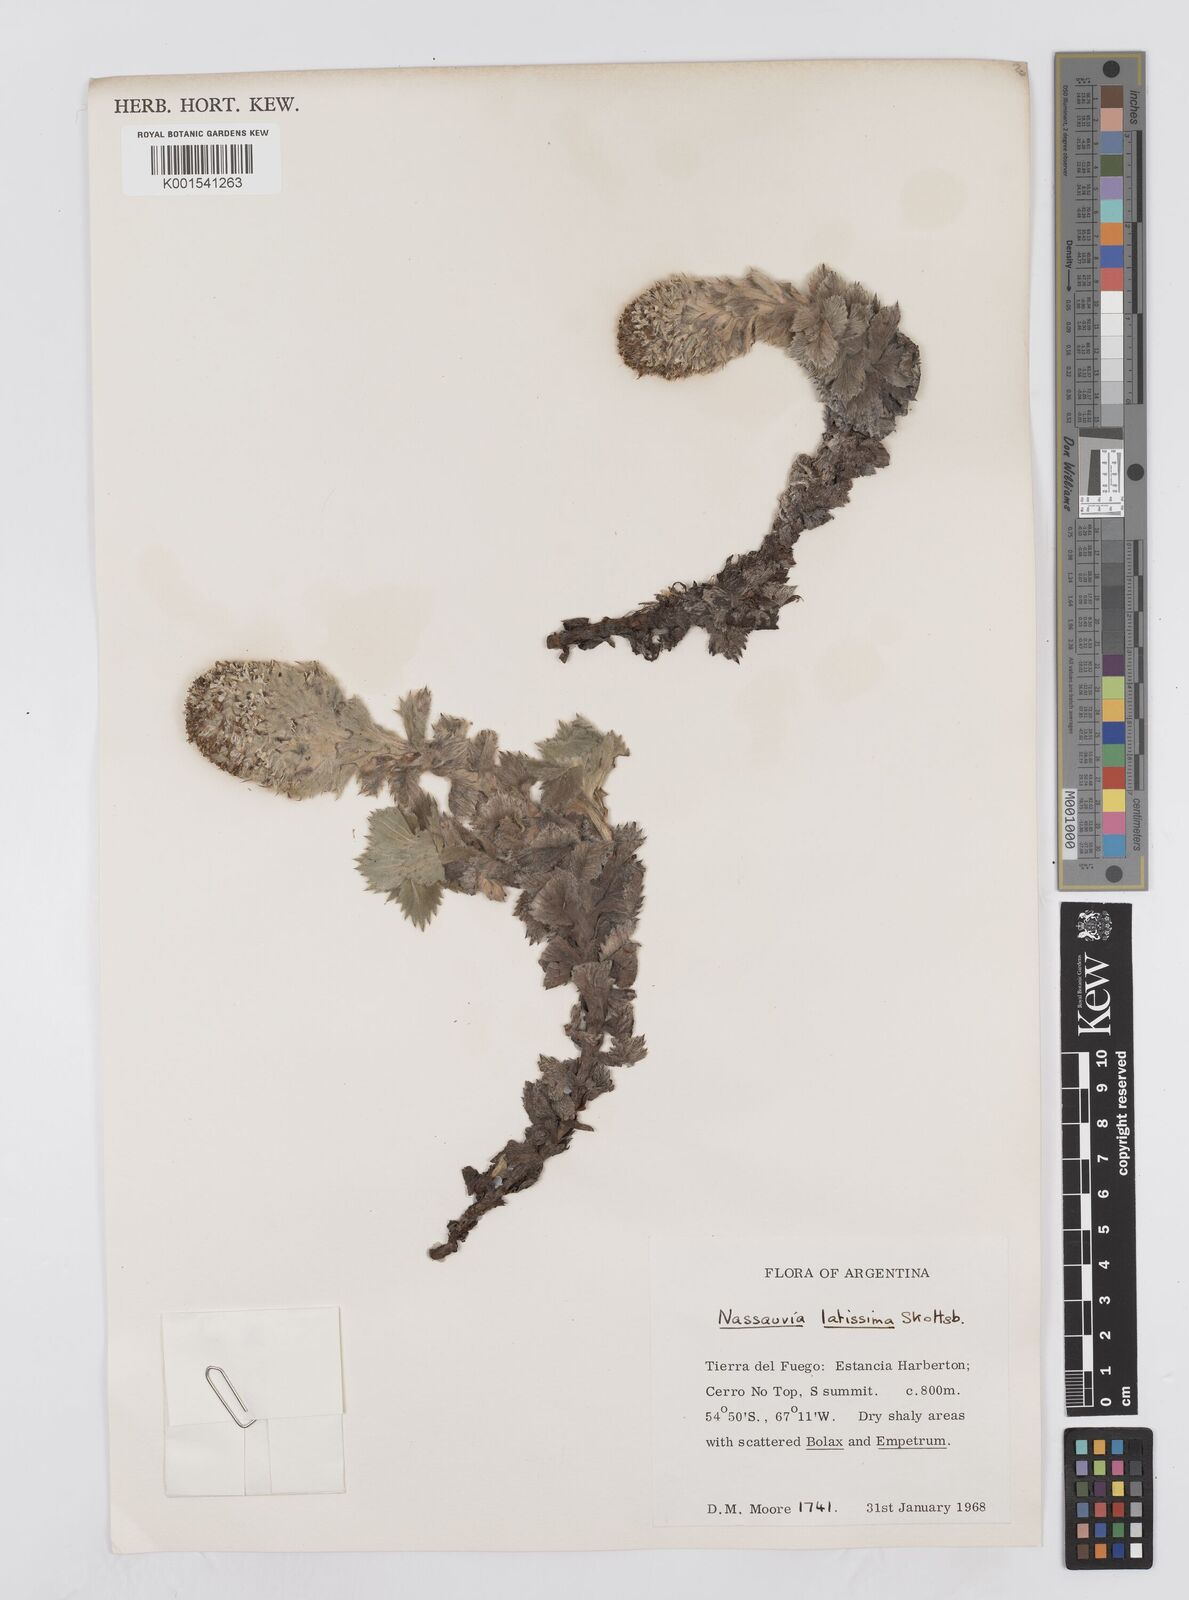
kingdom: Plantae
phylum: Tracheophyta
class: Magnoliopsida
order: Asterales
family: Asteraceae
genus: Nassauvia
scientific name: Nassauvia latissima
